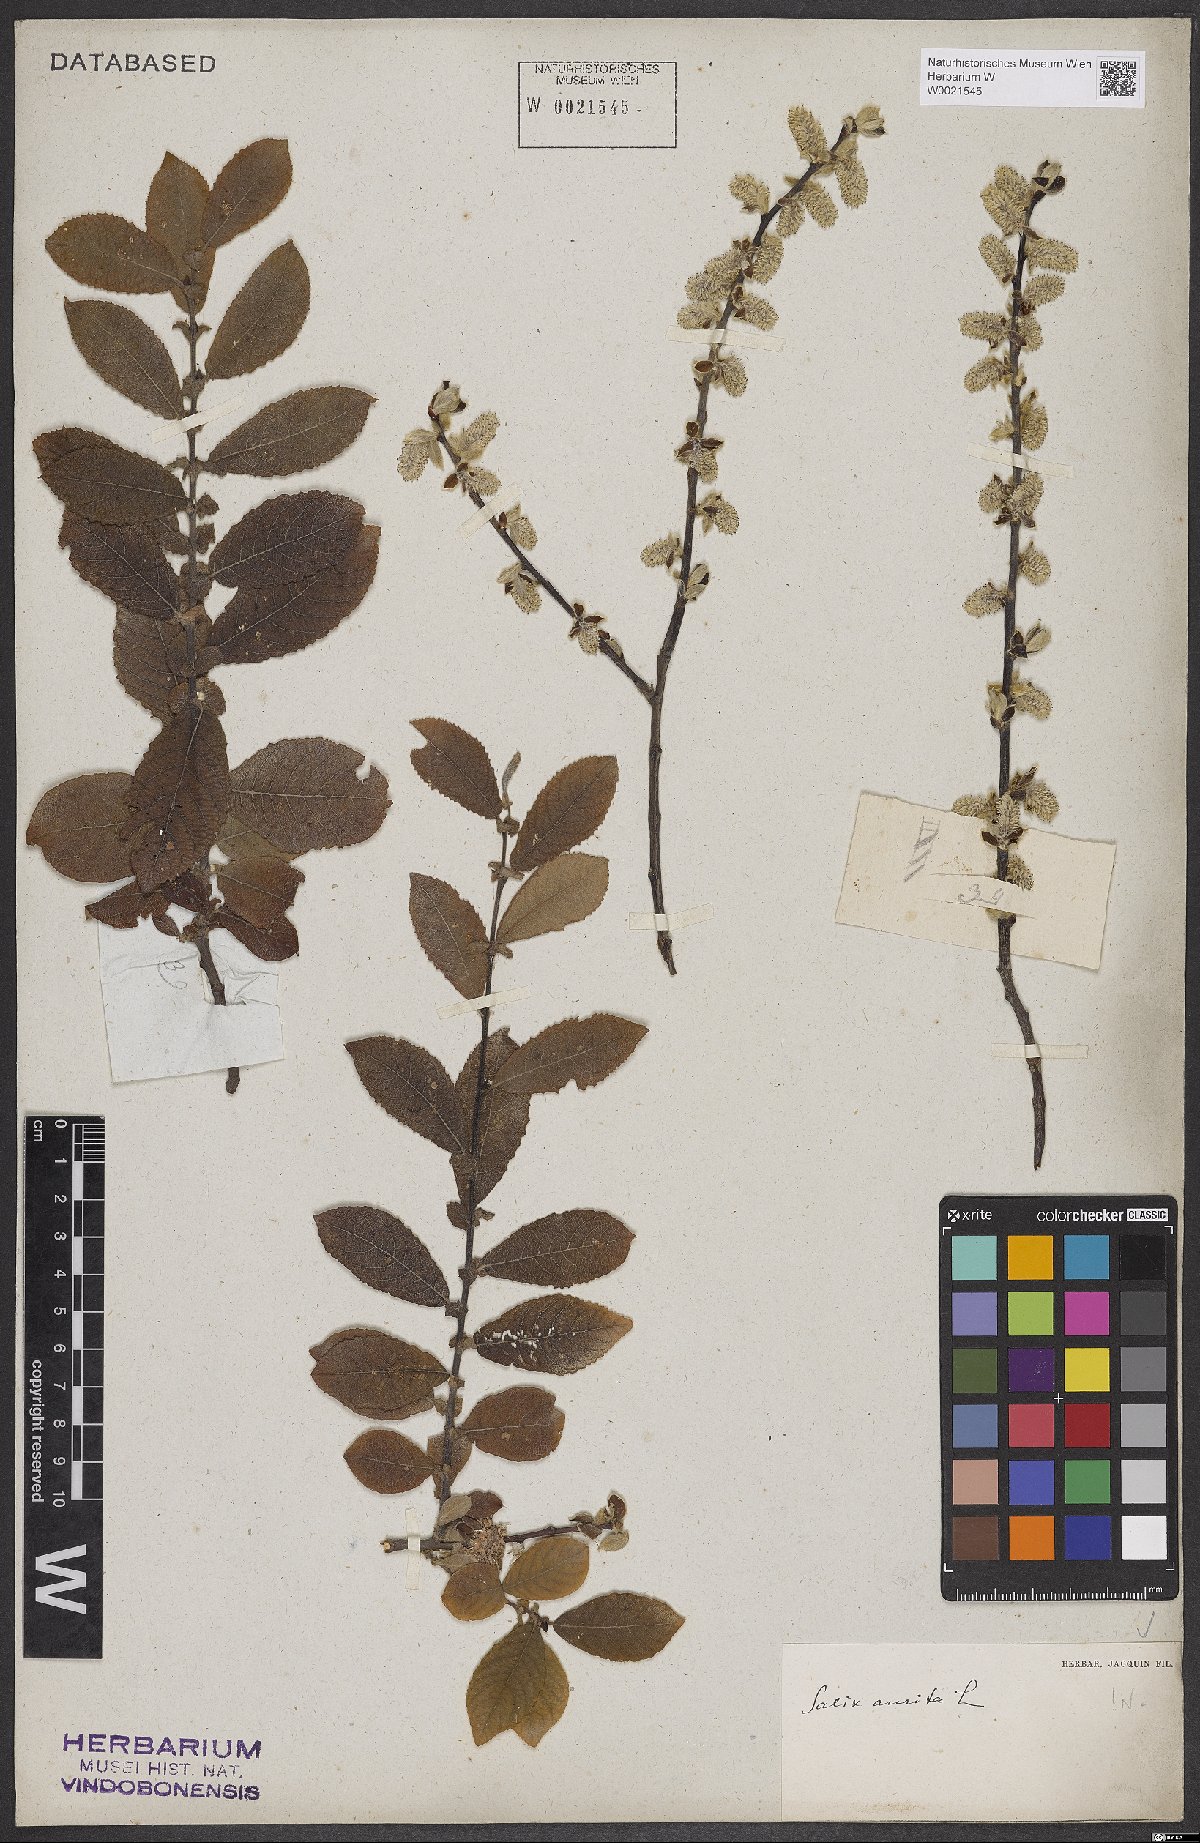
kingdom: Plantae
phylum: Tracheophyta
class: Magnoliopsida
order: Malpighiales
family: Salicaceae
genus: Salix
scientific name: Salix aurita
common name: Eared willow
